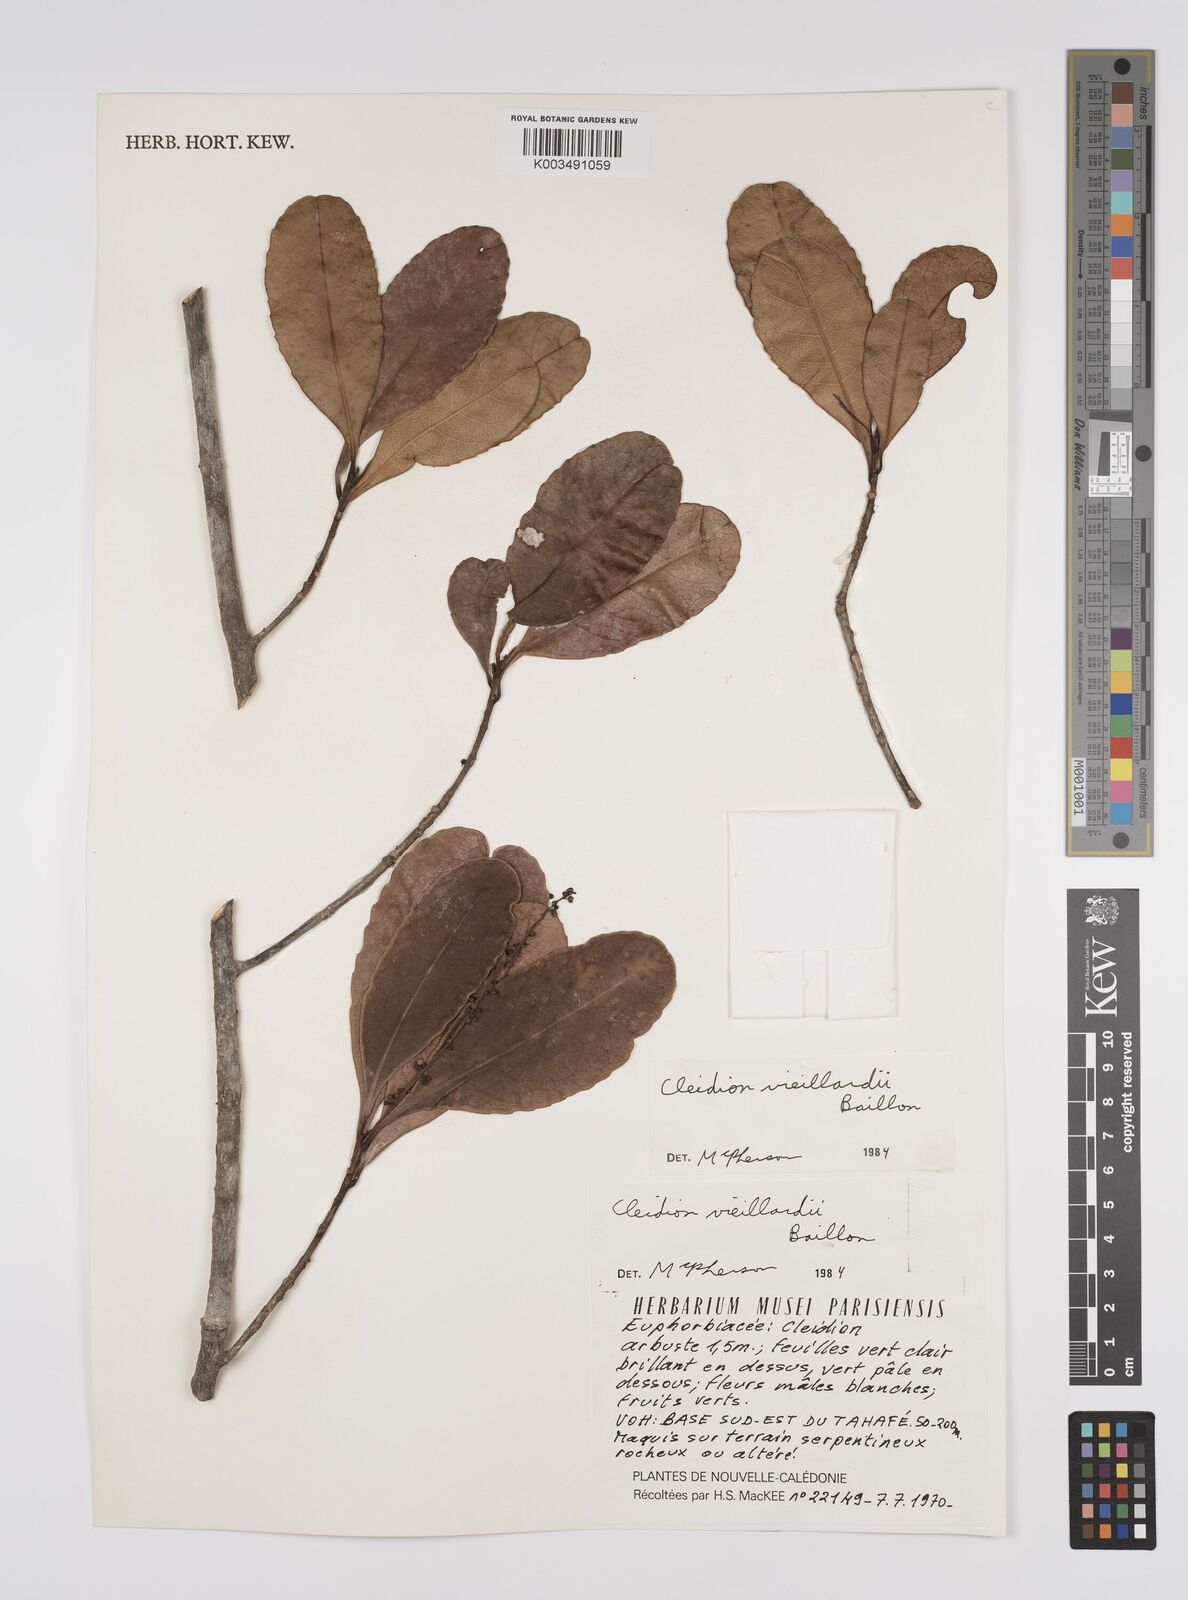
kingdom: Plantae
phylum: Tracheophyta
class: Magnoliopsida
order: Malpighiales
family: Euphorbiaceae
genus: Cleidion
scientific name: Cleidion vieillardii
